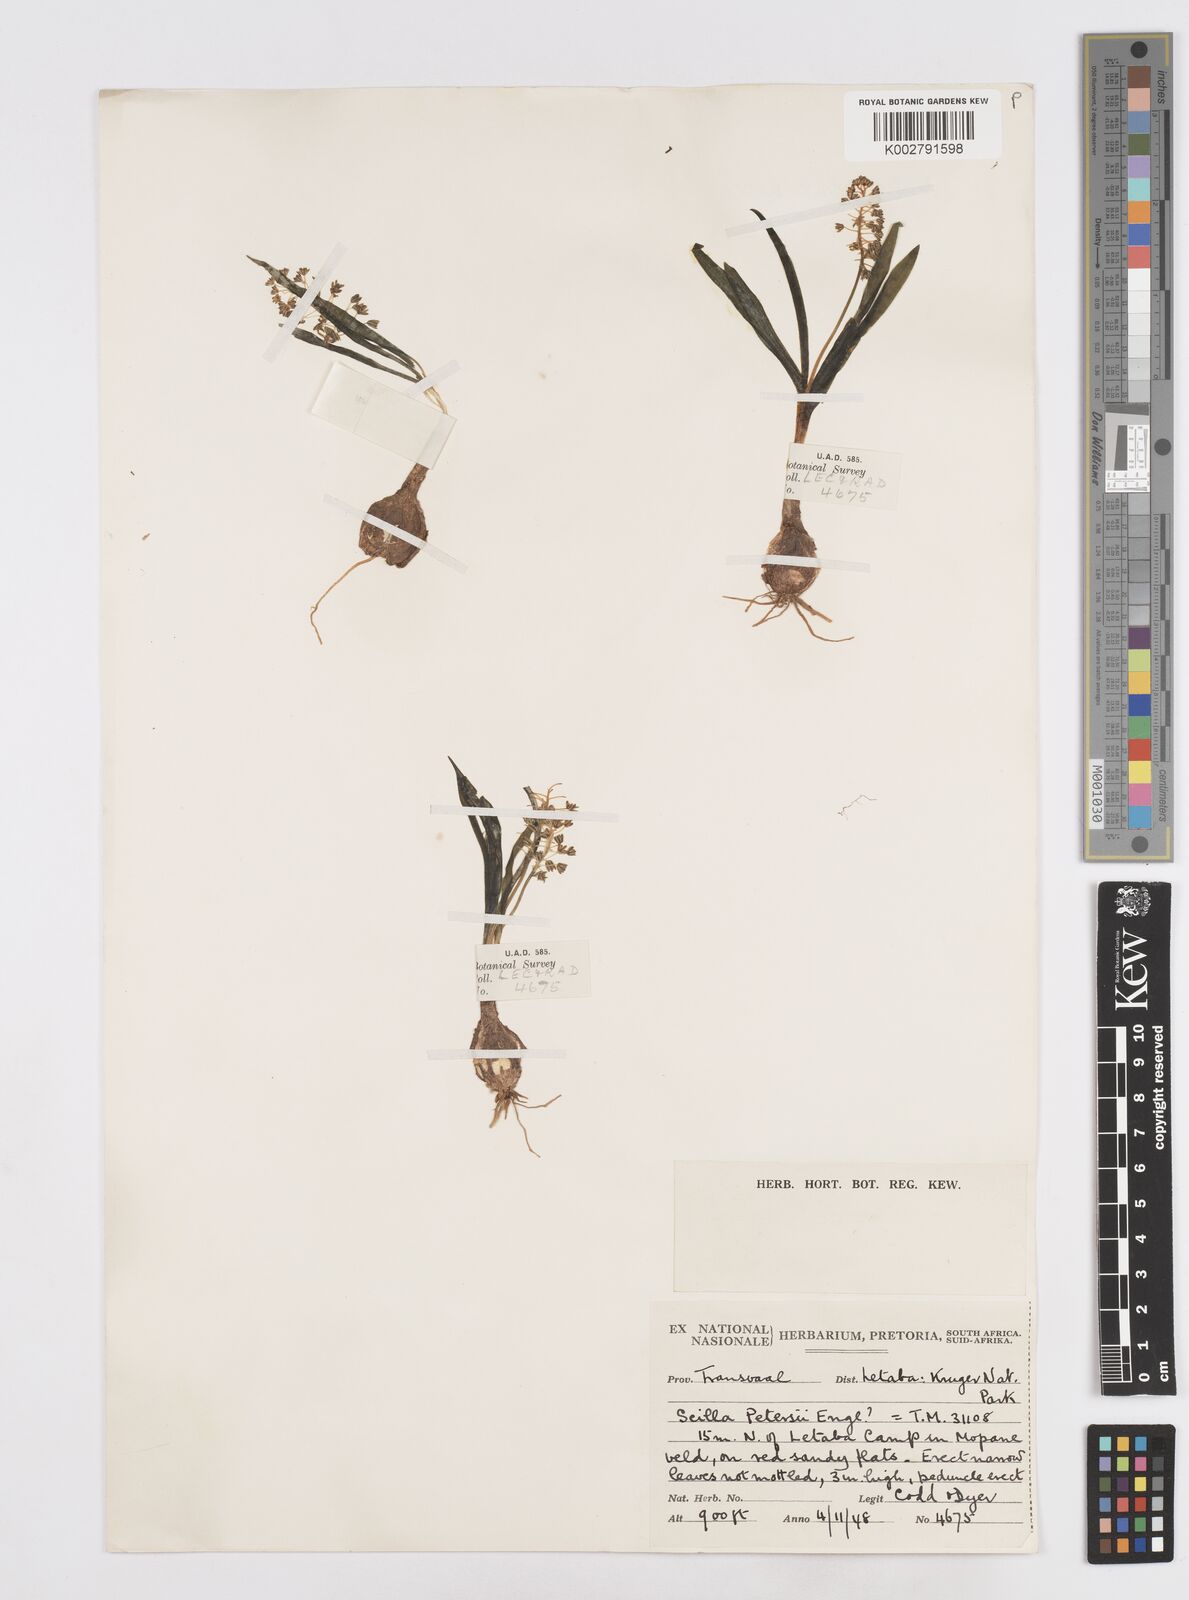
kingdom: Plantae
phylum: Tracheophyta
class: Liliopsida
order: Asparagales
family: Asparagaceae
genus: Scilla
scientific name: Scilla petersii
